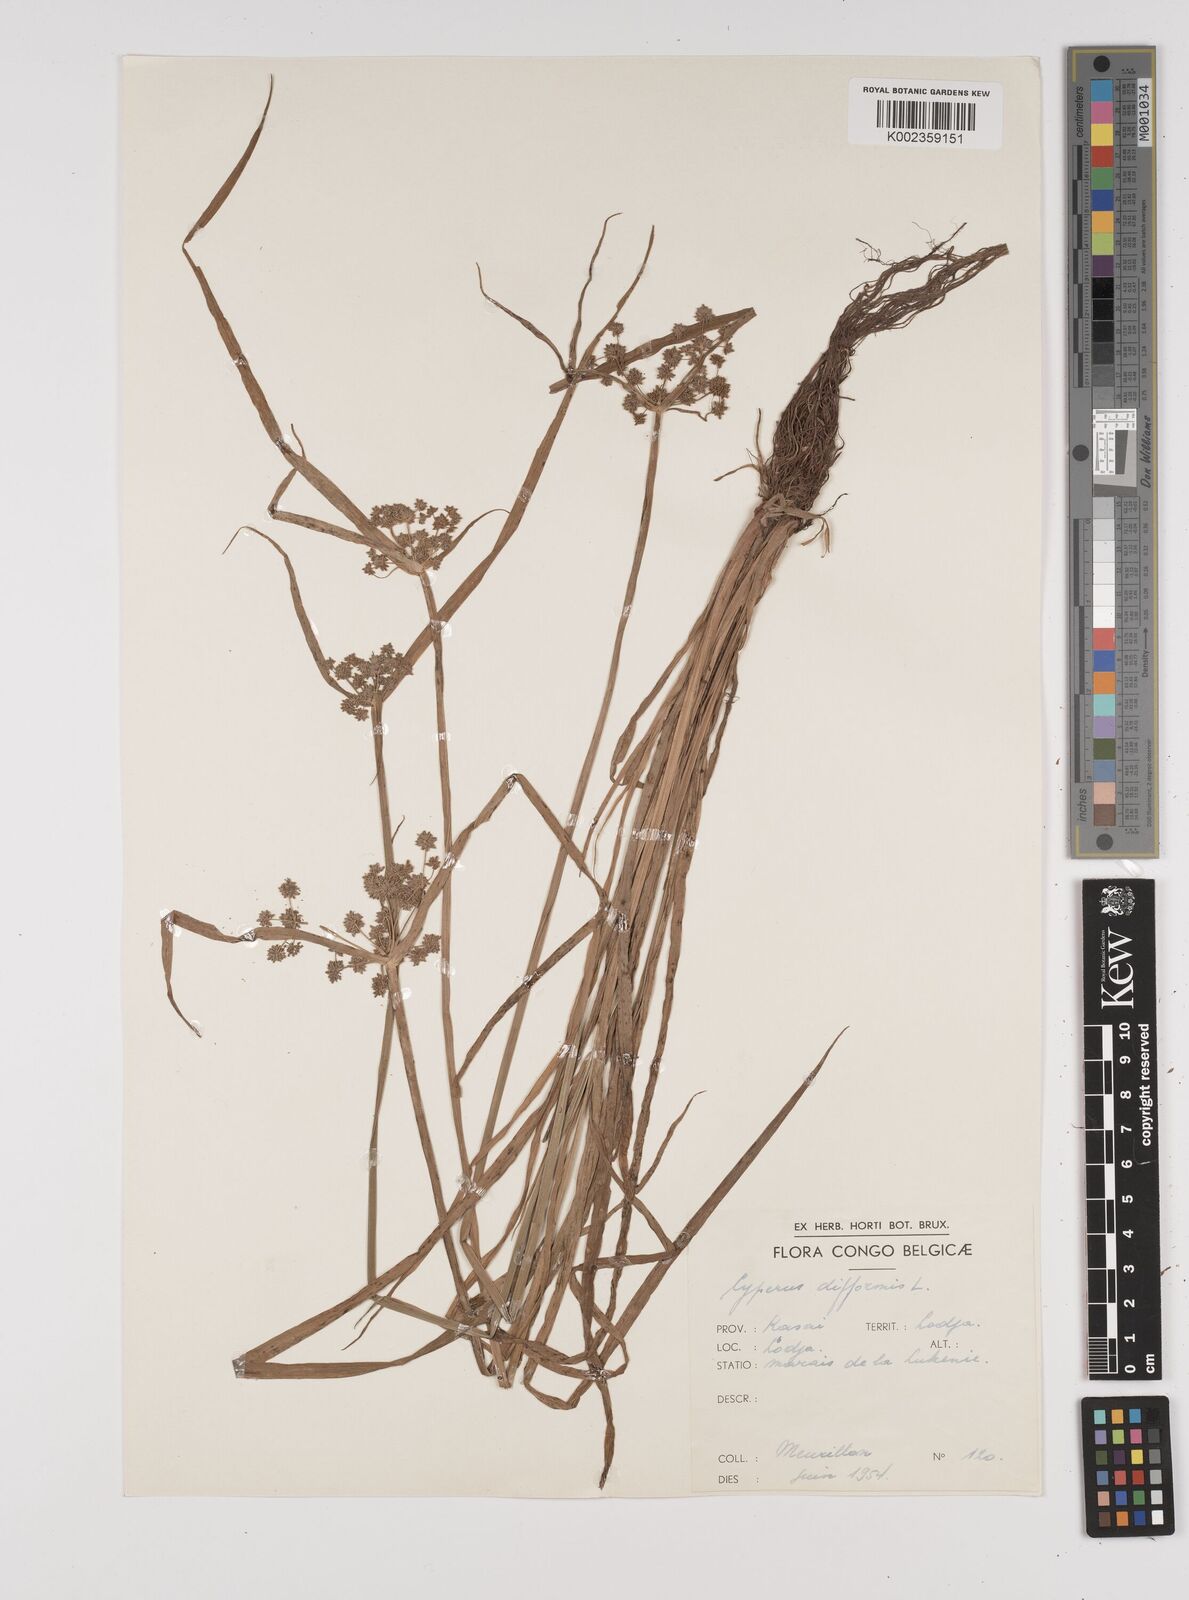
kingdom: Plantae
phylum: Tracheophyta
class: Liliopsida
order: Poales
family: Cyperaceae
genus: Cyperus
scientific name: Cyperus difformis
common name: Variable flatsedge
